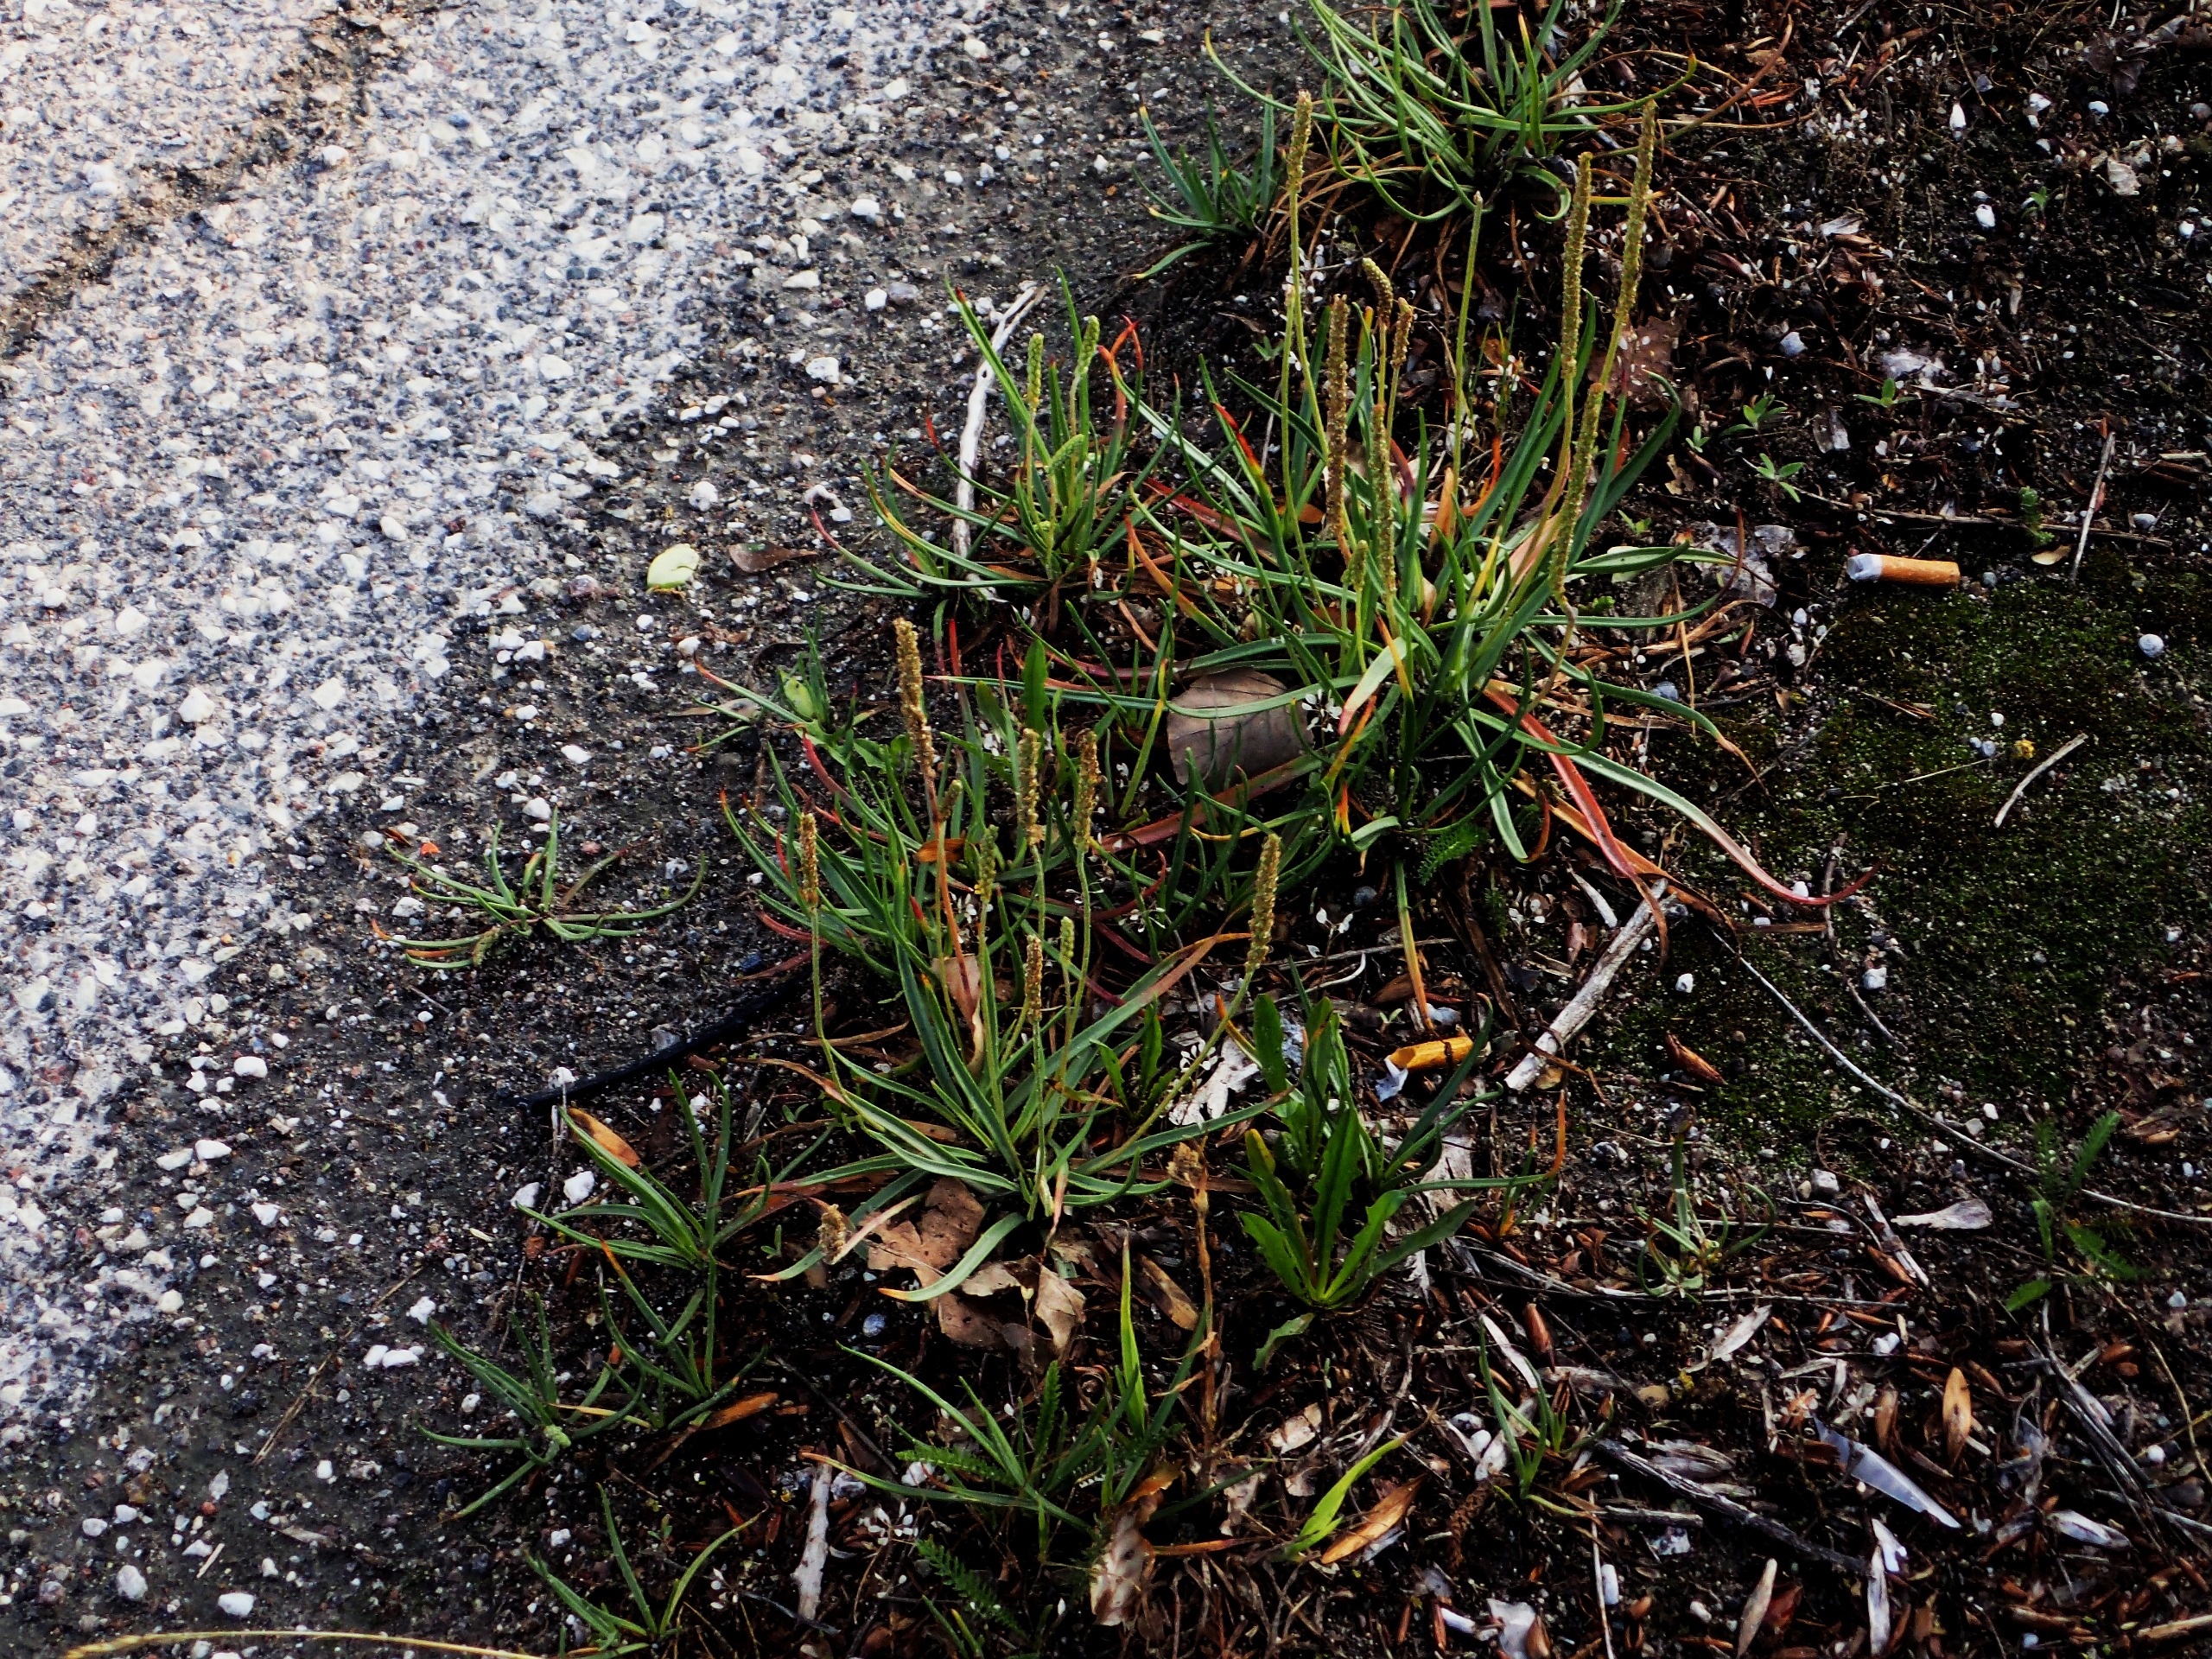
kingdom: Plantae
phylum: Tracheophyta
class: Magnoliopsida
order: Lamiales
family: Plantaginaceae
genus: Plantago
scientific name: Plantago maritima
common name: Strand-vejbred
